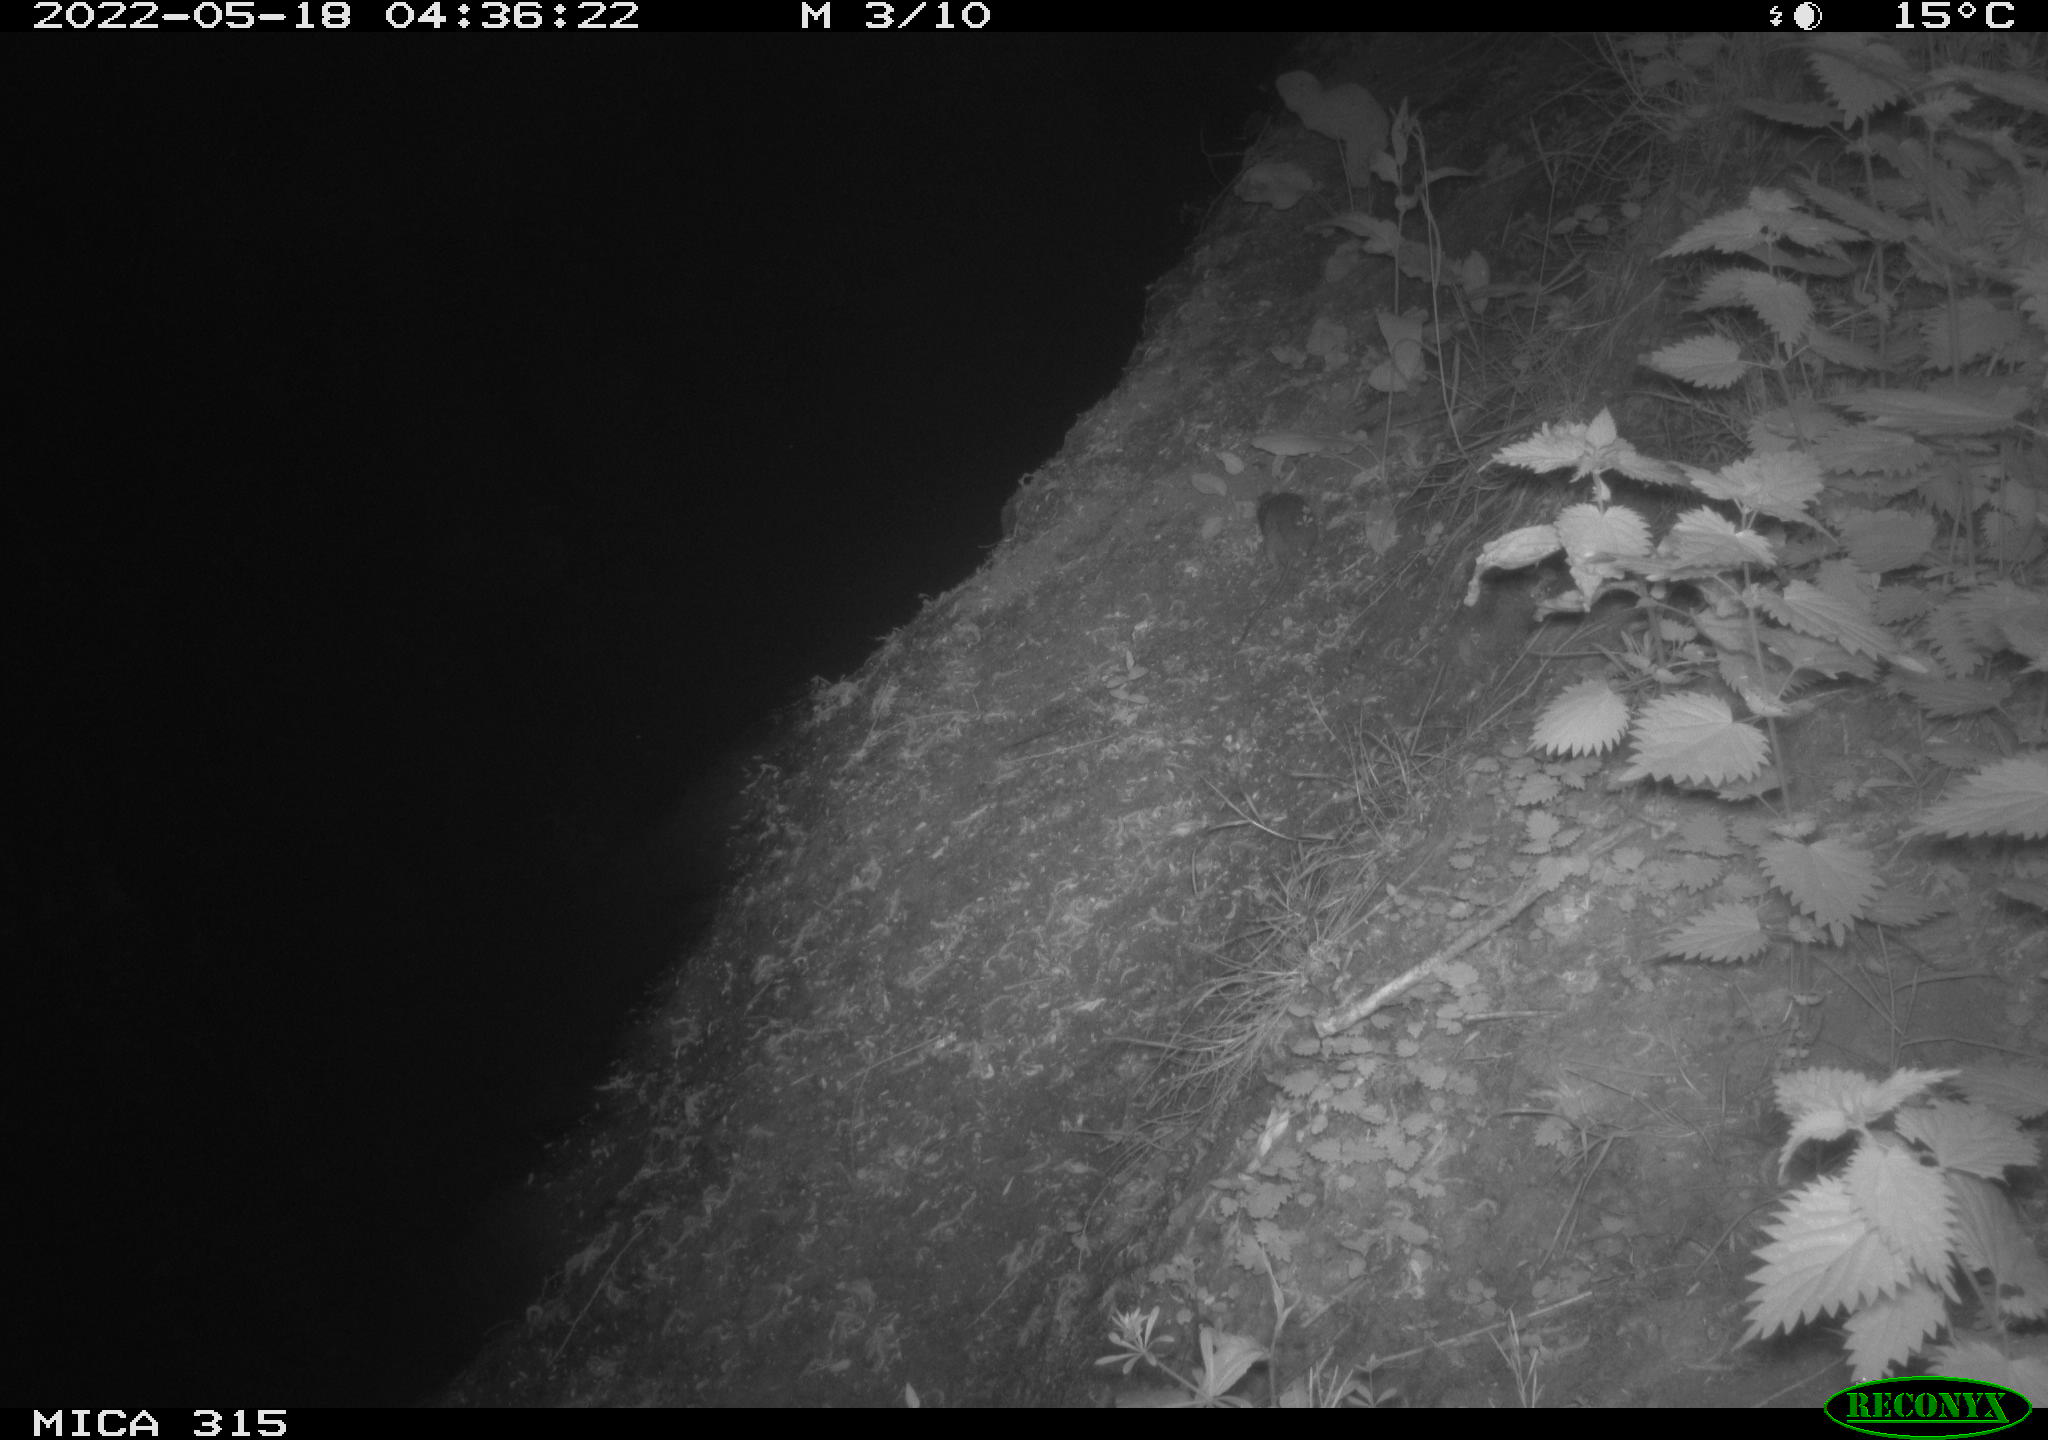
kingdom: Animalia
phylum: Chordata
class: Mammalia
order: Rodentia
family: Muridae
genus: Rattus
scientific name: Rattus norvegicus
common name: Brown rat
